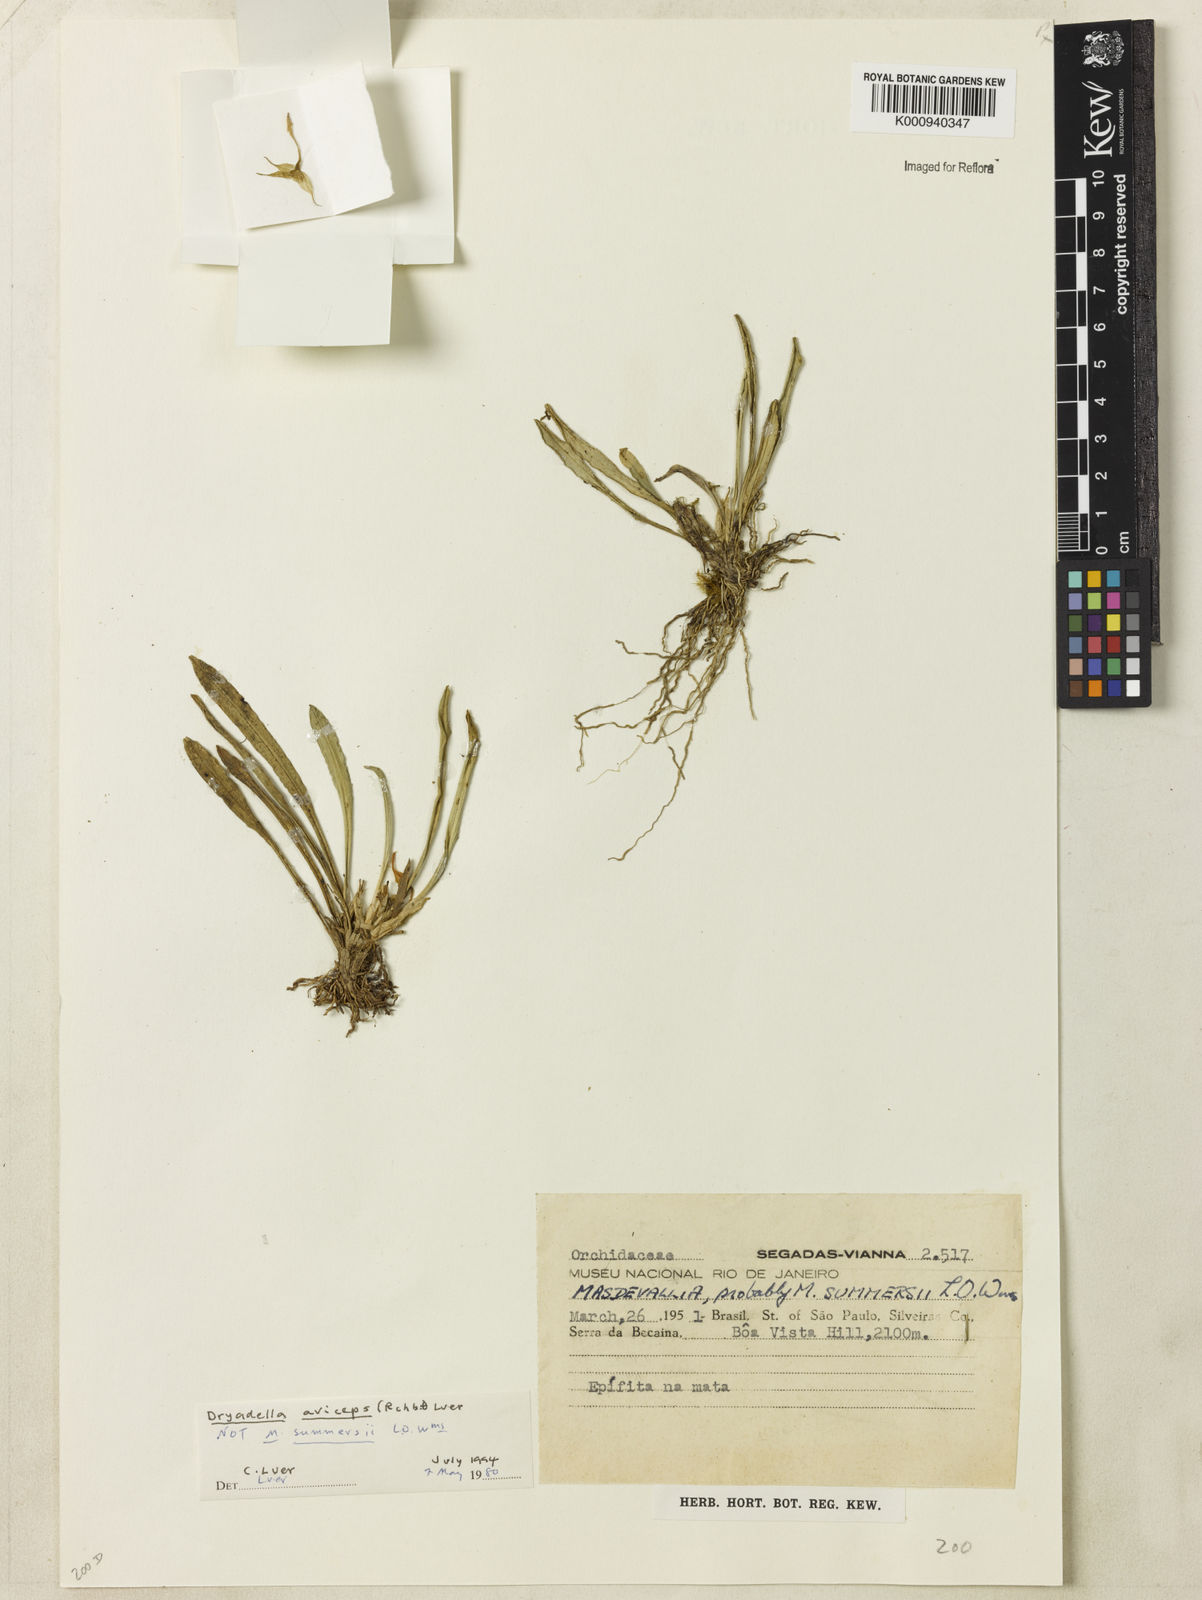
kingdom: Plantae
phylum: Tracheophyta
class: Liliopsida
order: Asparagales
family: Orchidaceae
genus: Dryadella
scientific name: Dryadella aviceps
